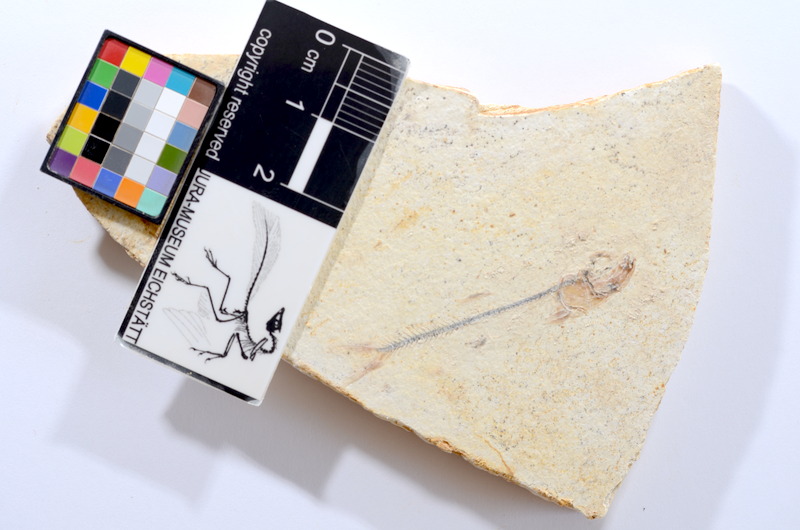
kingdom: Animalia
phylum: Chordata
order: Salmoniformes
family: Orthogonikleithridae
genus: Orthogonikleithrus
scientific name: Orthogonikleithrus hoelli
